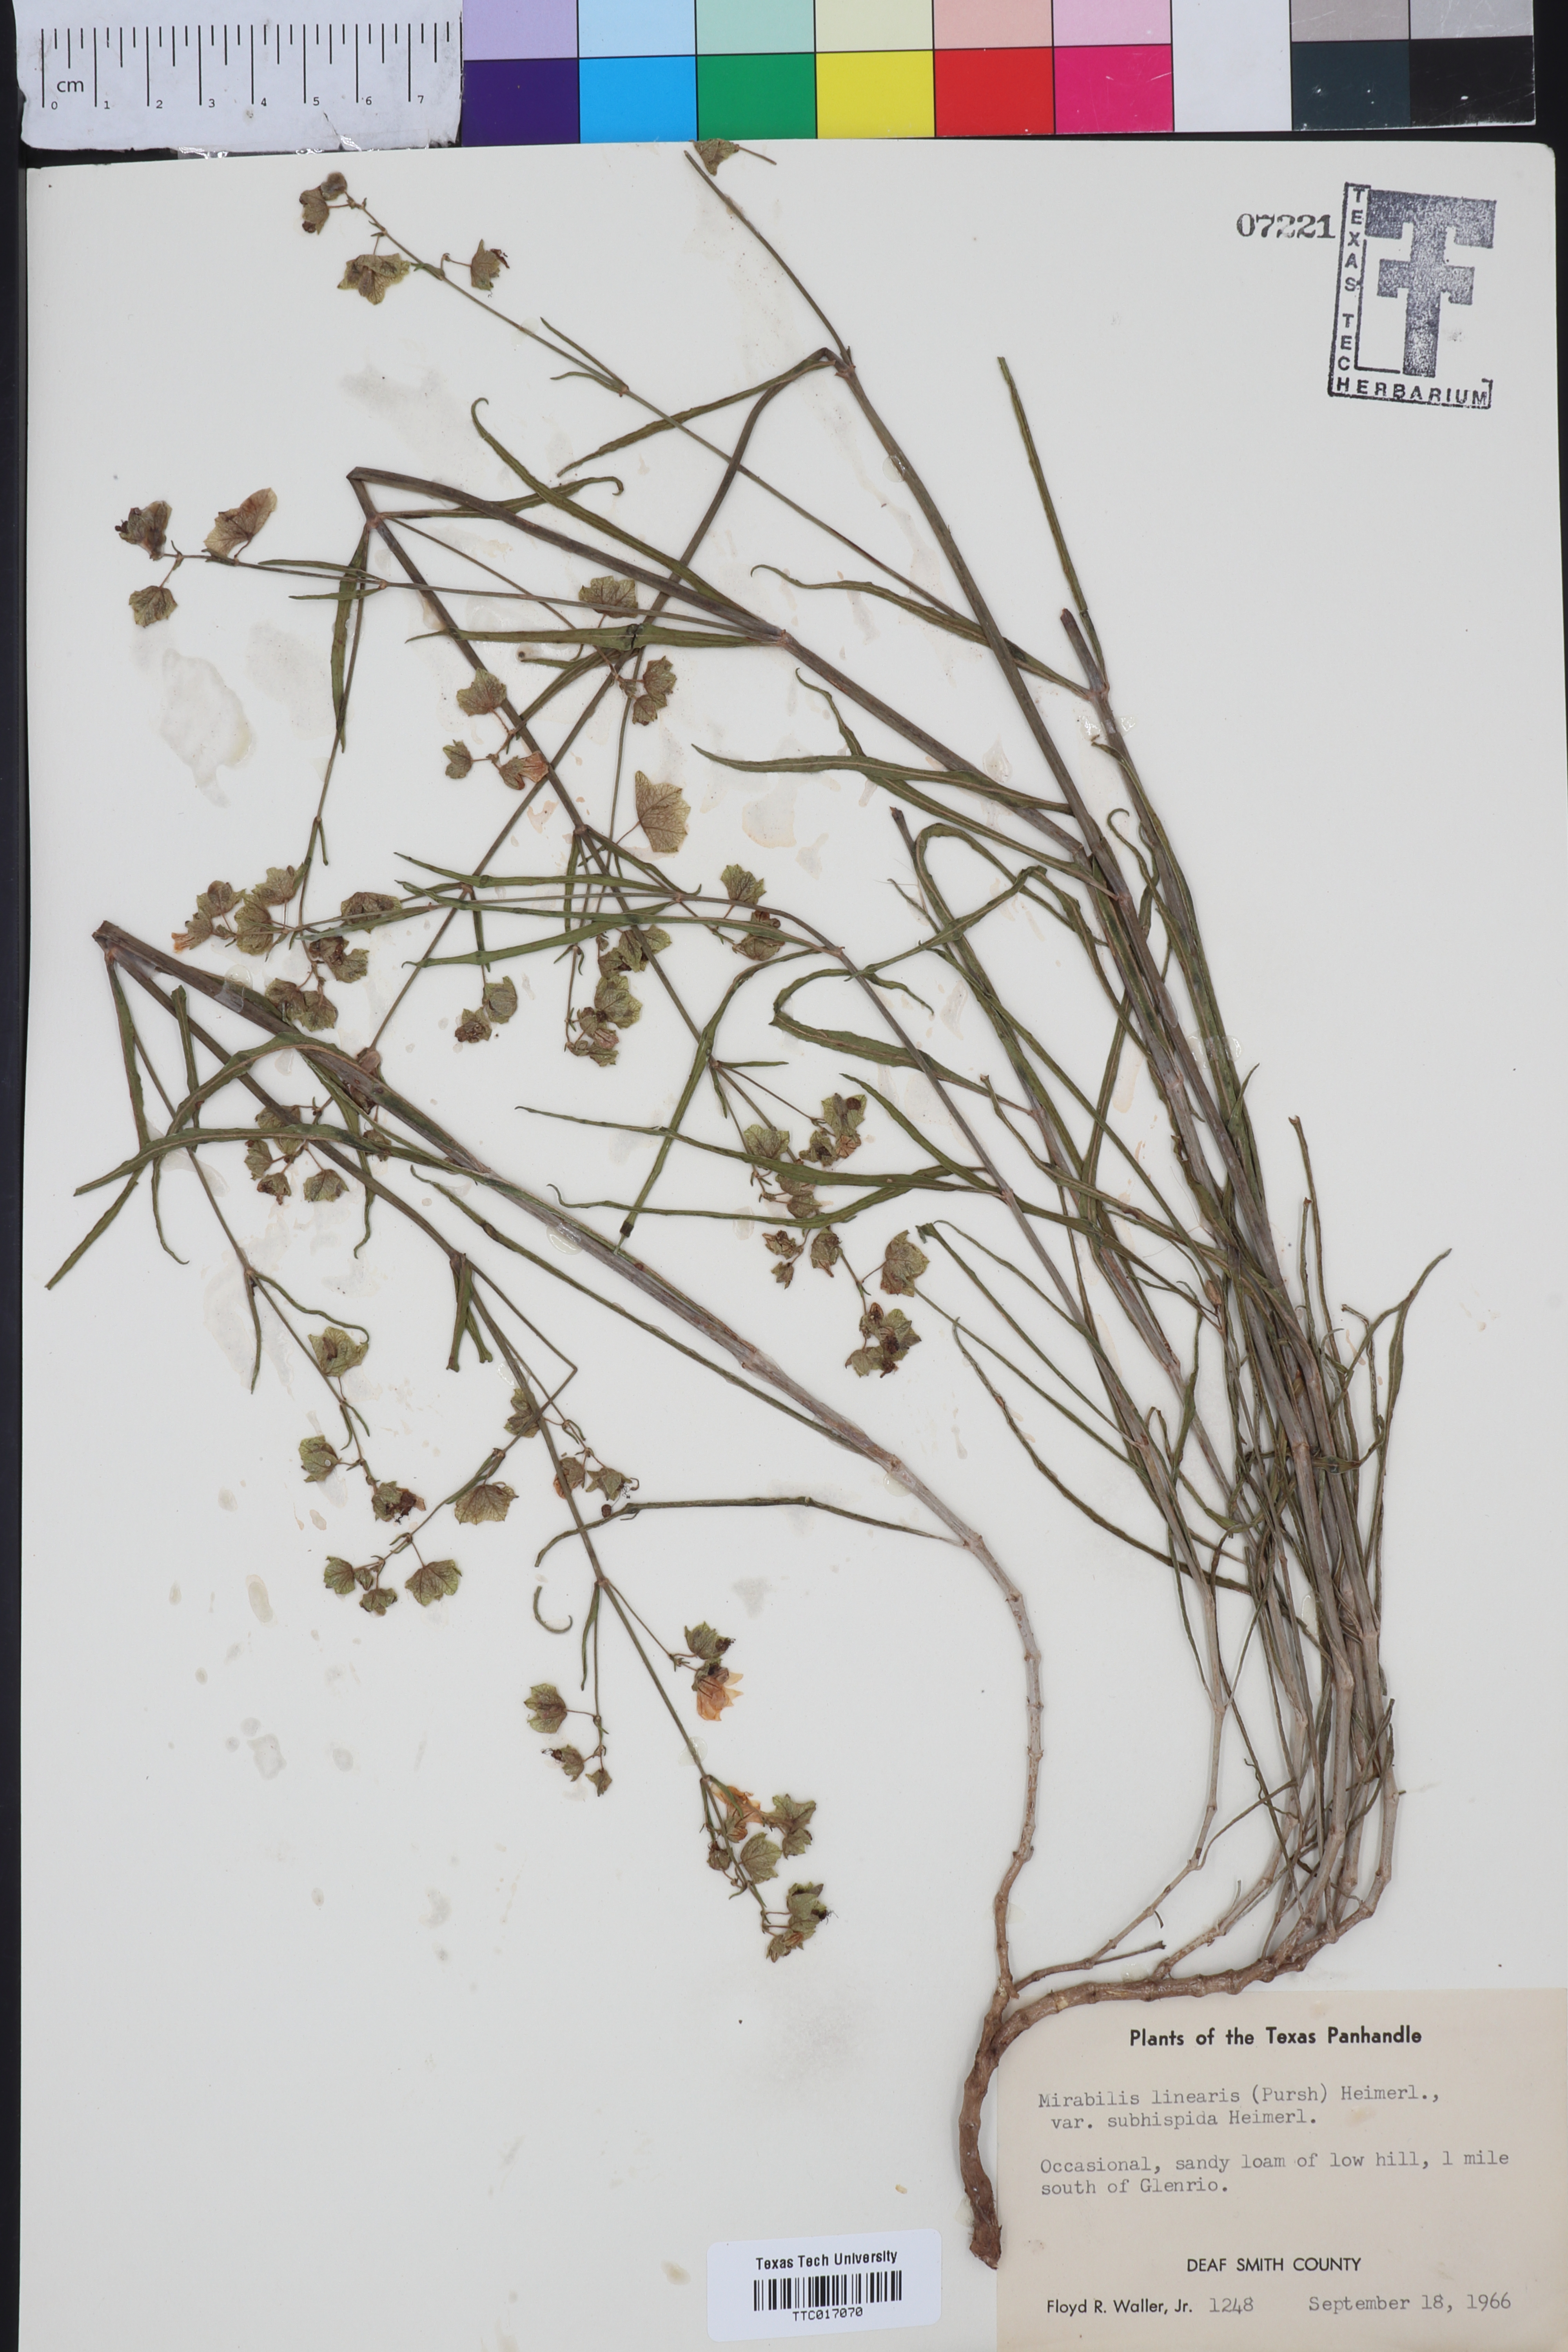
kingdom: Plantae
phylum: Tracheophyta
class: Magnoliopsida
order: Caryophyllales
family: Nyctaginaceae
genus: Mirabilis
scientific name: Mirabilis linearis
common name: Linear-leaved four-o'clock
